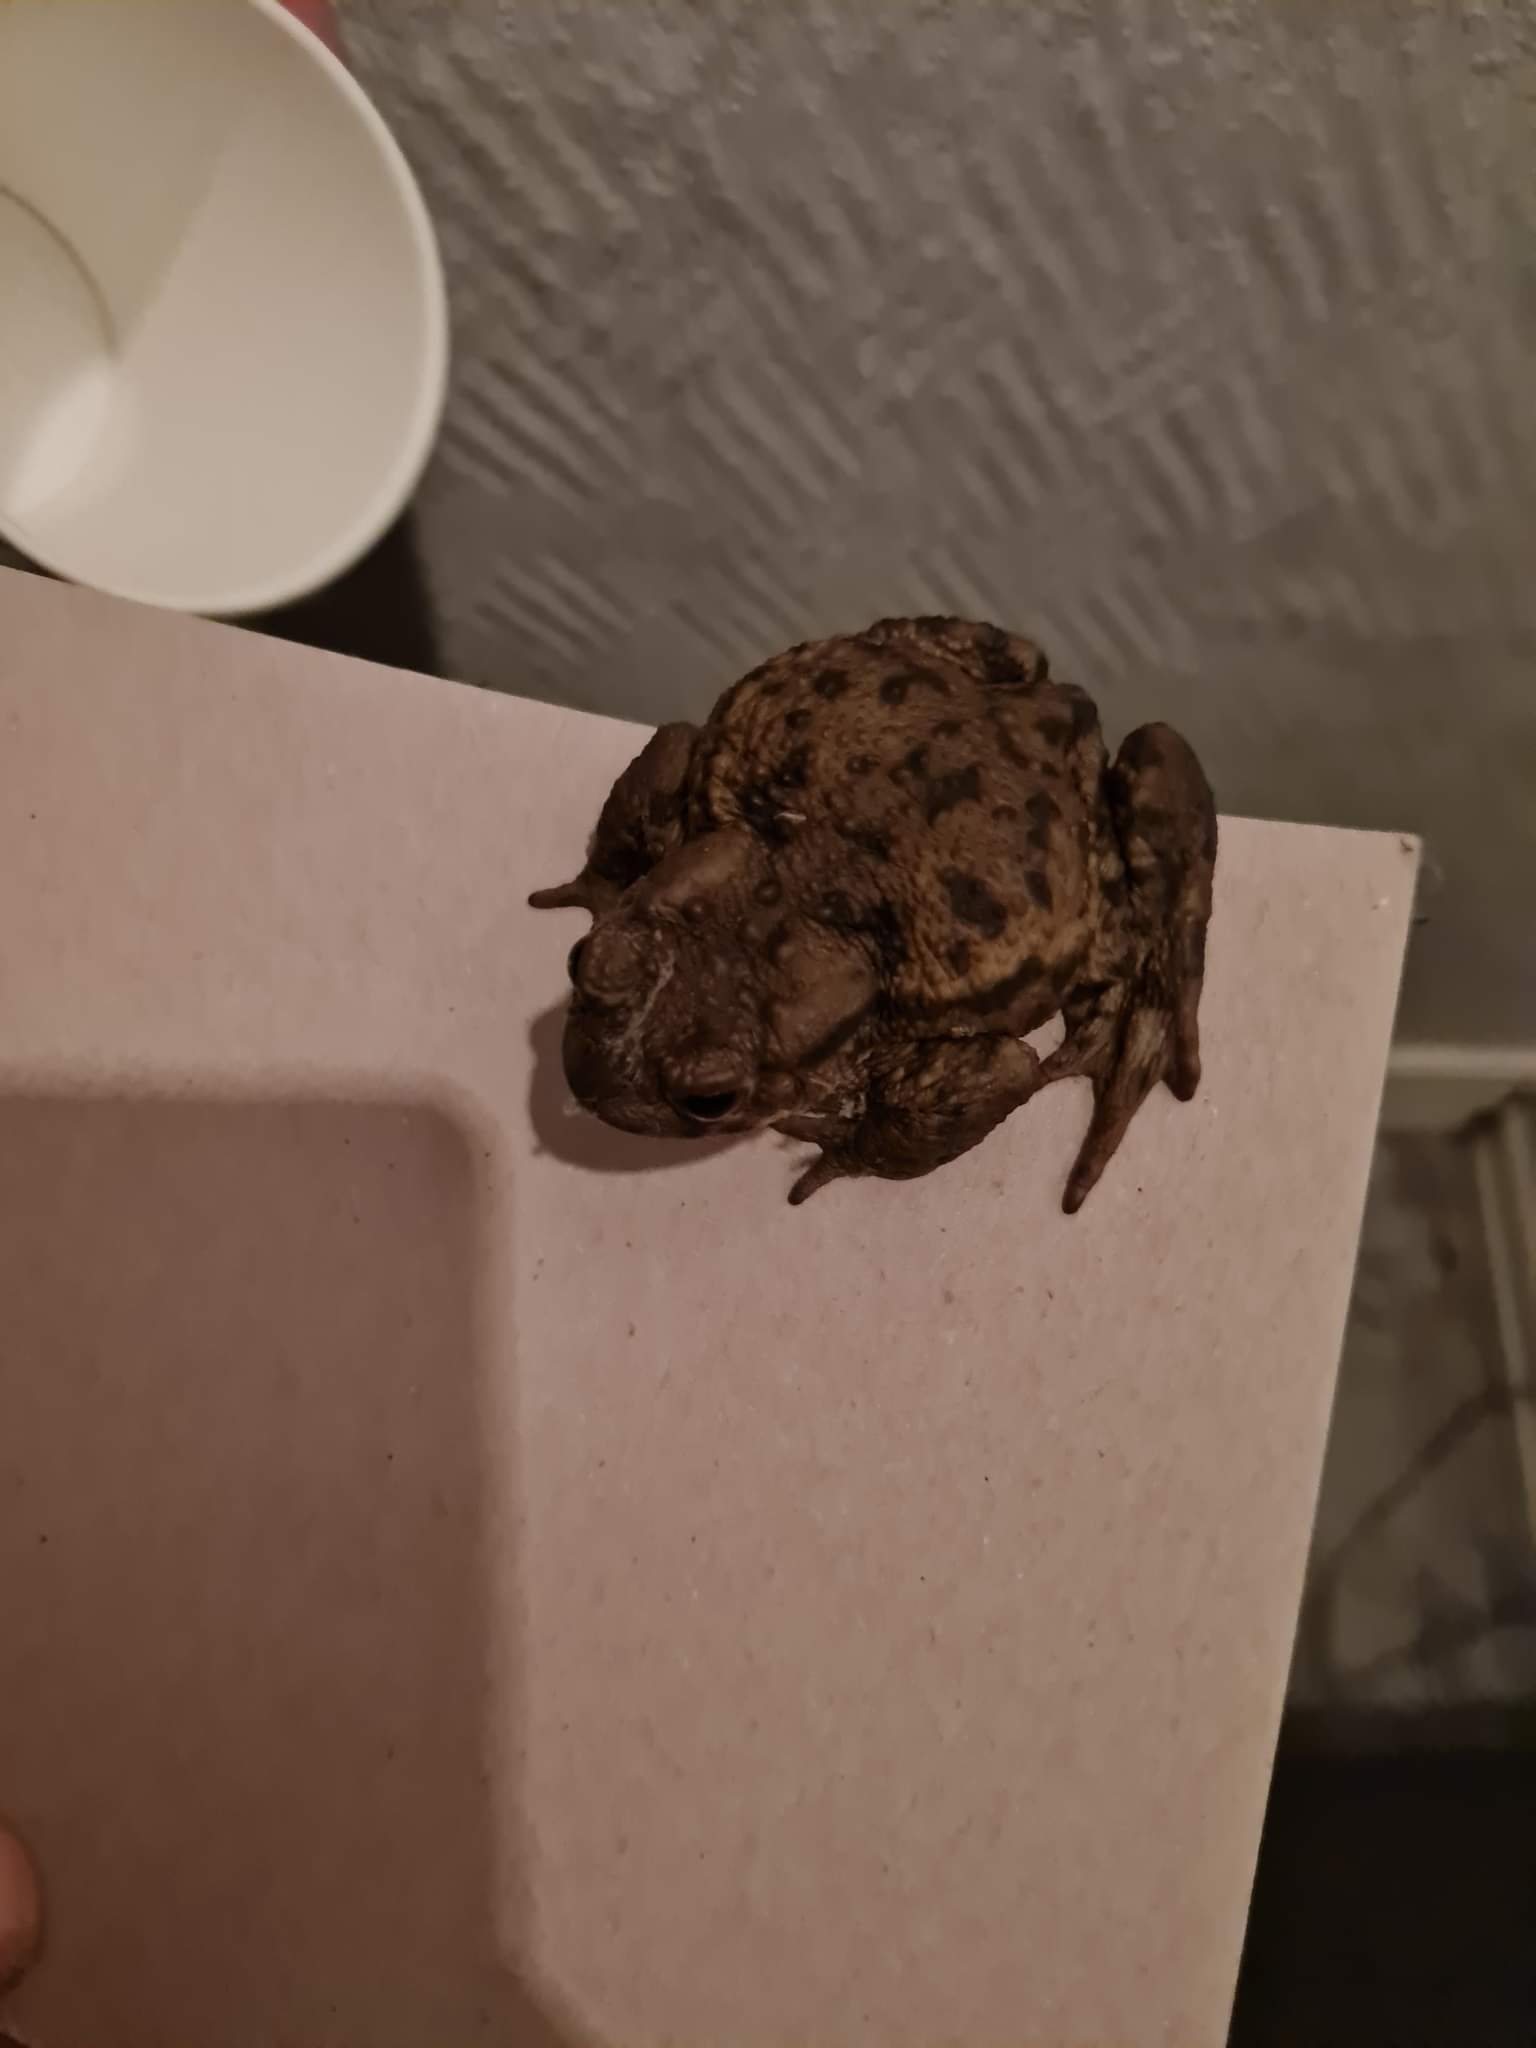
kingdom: Animalia
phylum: Chordata
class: Amphibia
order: Anura
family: Bufonidae
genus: Bufo
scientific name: Bufo bufo
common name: Skrubtudse
